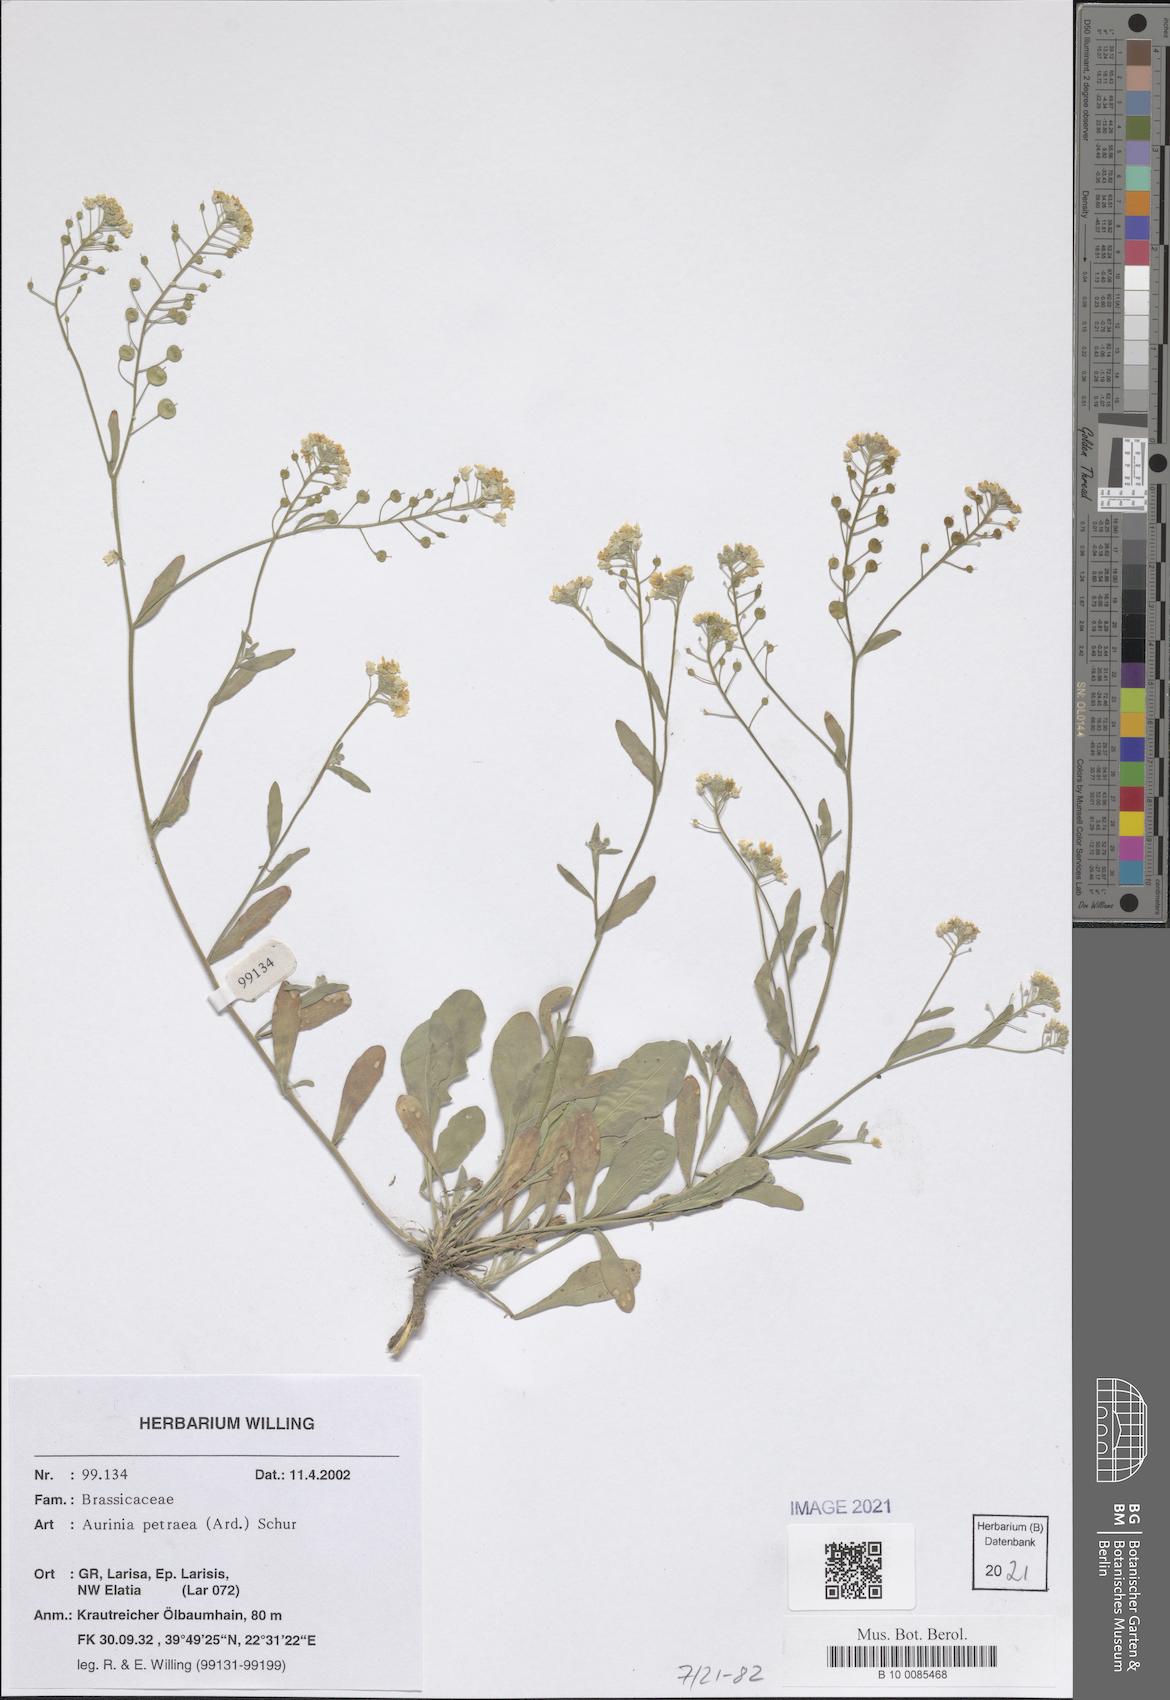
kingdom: Plantae
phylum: Tracheophyta
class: Magnoliopsida
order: Brassicales
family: Brassicaceae
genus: Aurinia
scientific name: Aurinia petraea
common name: Goldentuft
